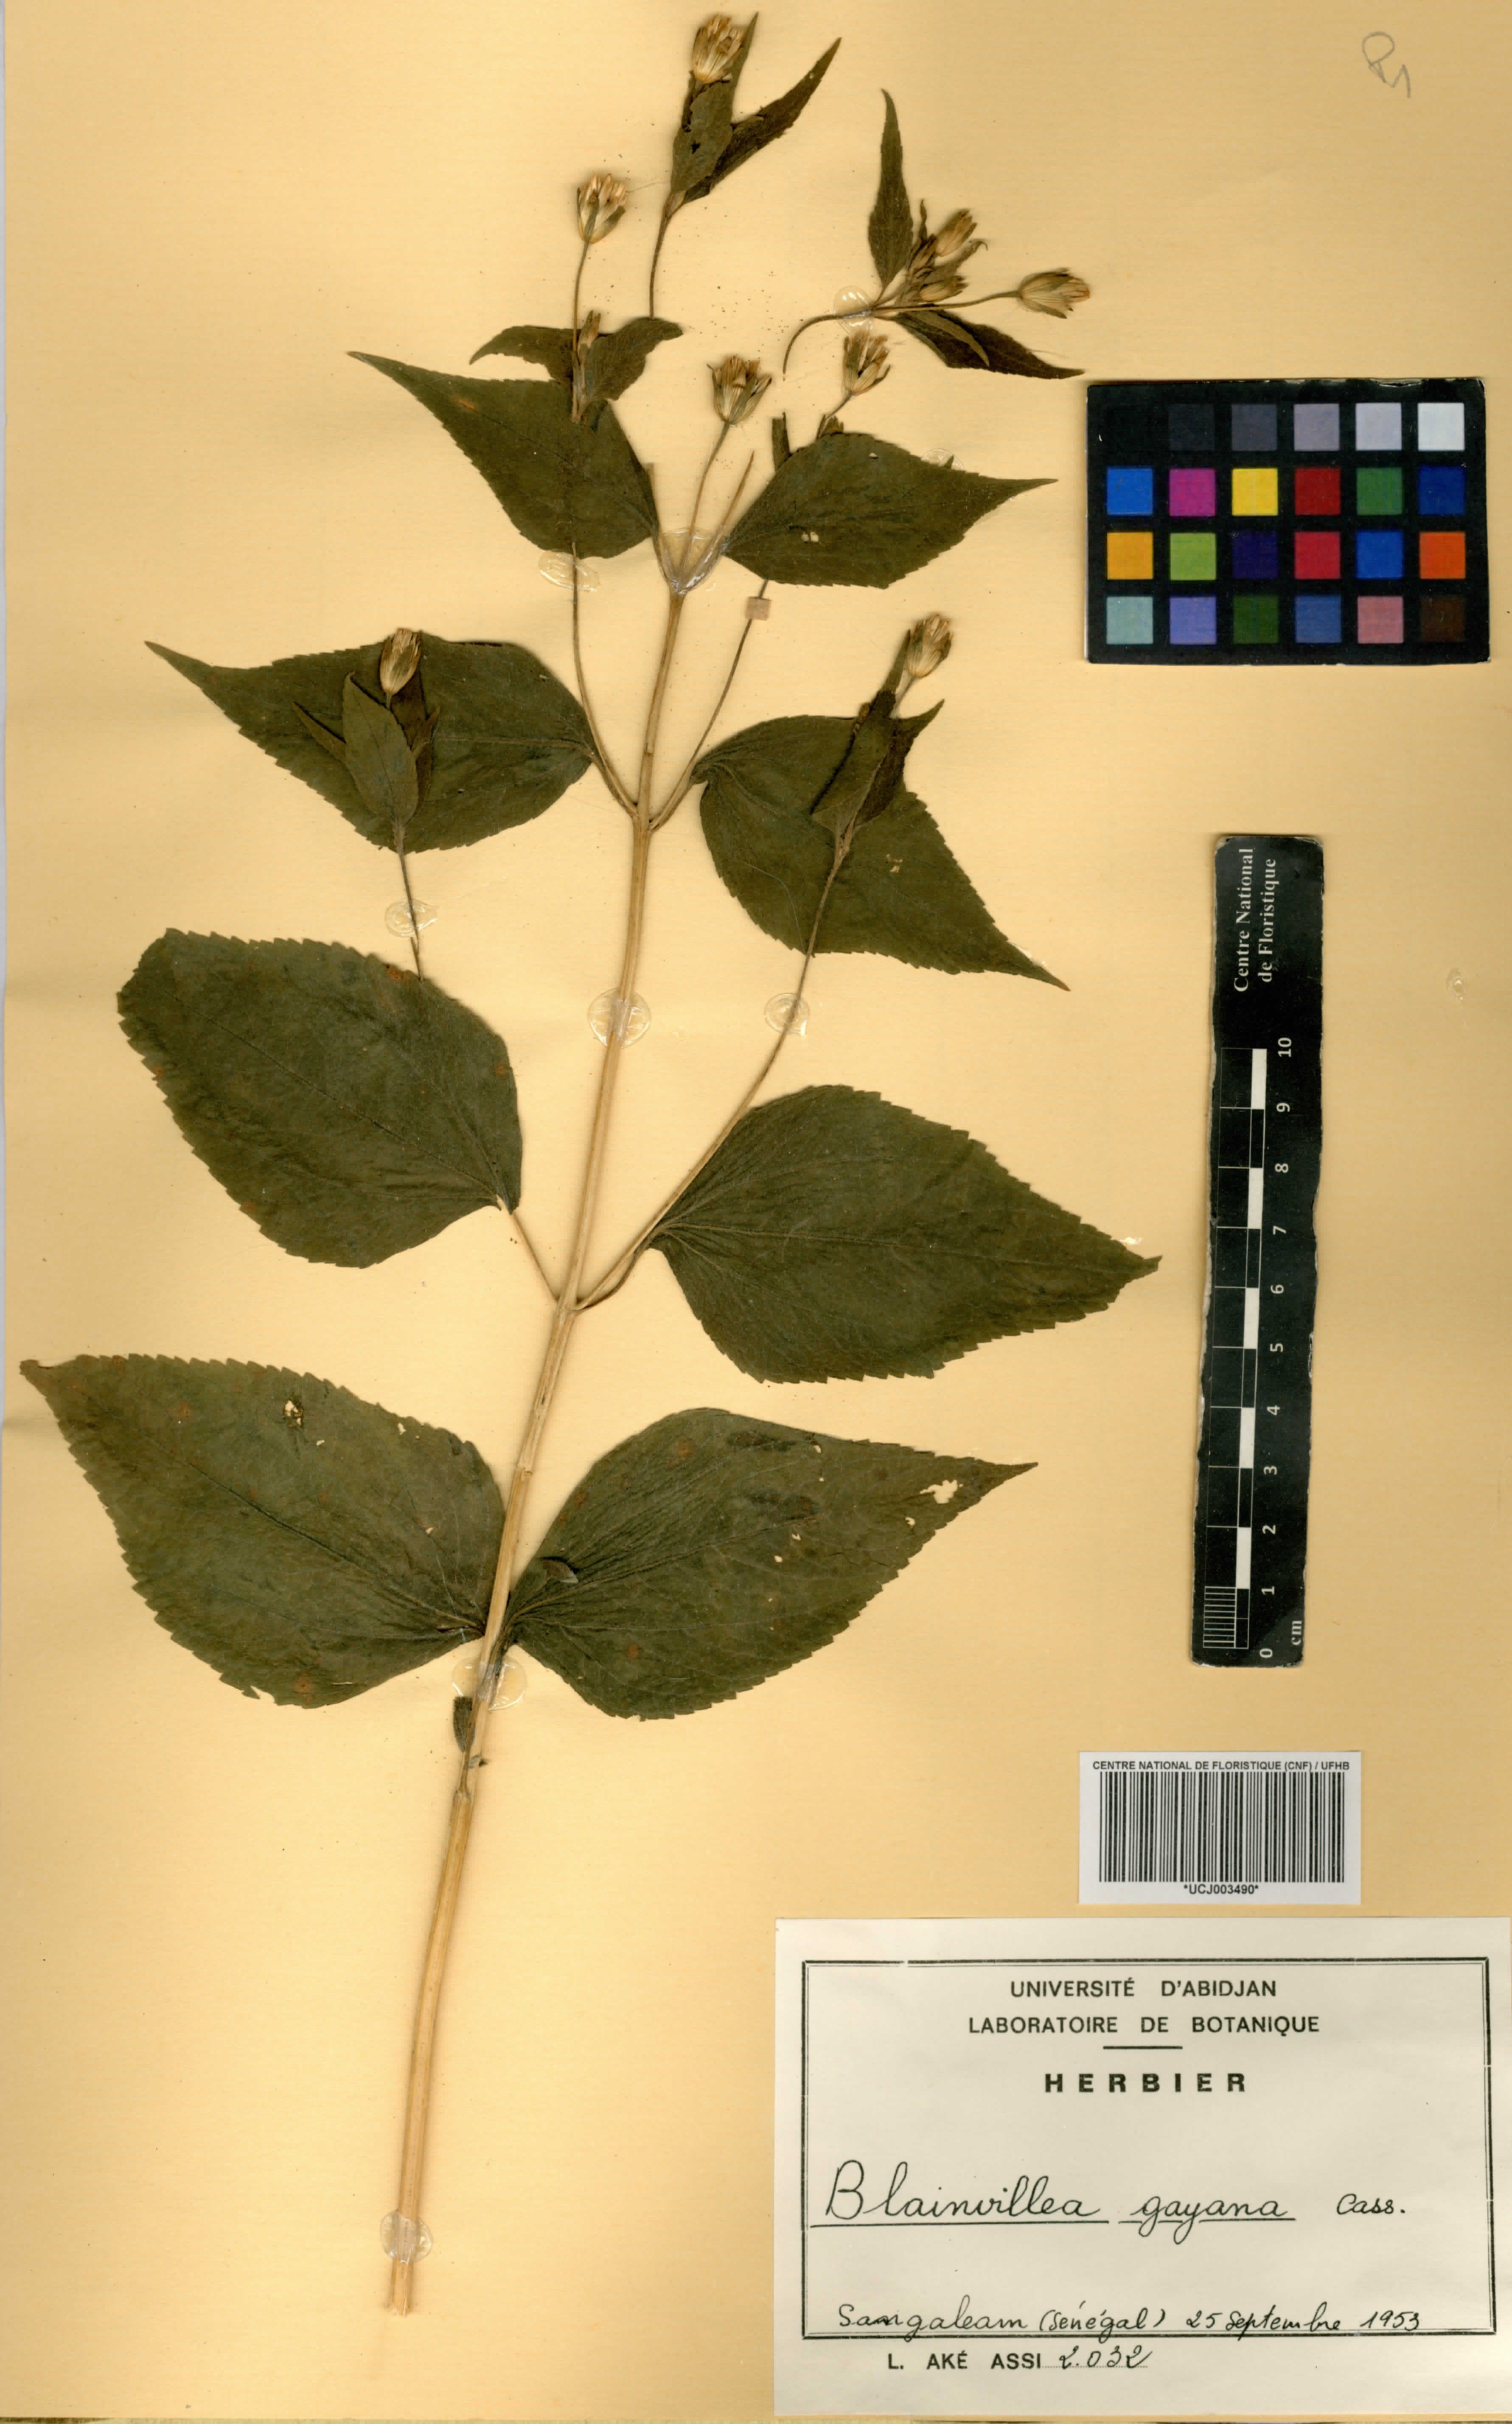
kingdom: Plantae
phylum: Tracheophyta
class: Magnoliopsida
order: Asterales
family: Asteraceae
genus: Blainvillea
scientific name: Blainvillea gayana
